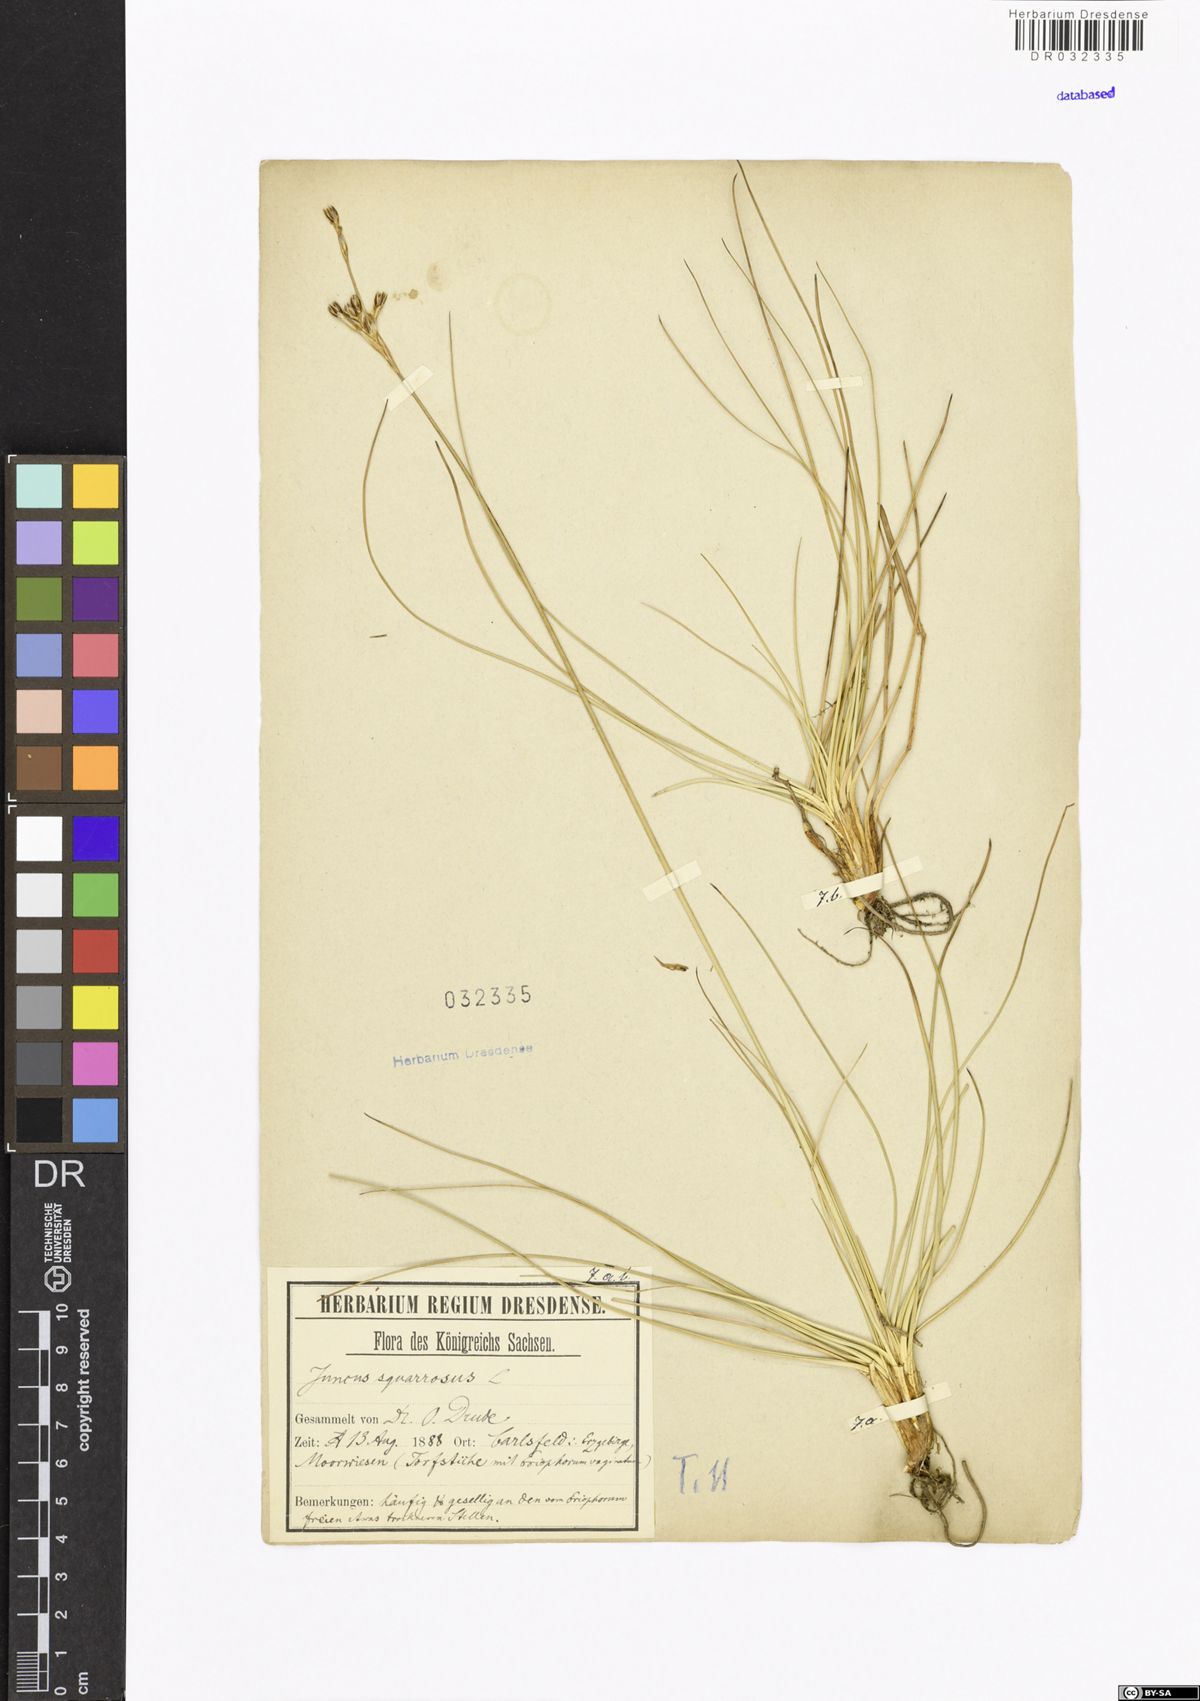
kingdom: Plantae
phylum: Tracheophyta
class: Liliopsida
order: Poales
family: Juncaceae
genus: Juncus
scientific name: Juncus squarrosus
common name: Heath rush
